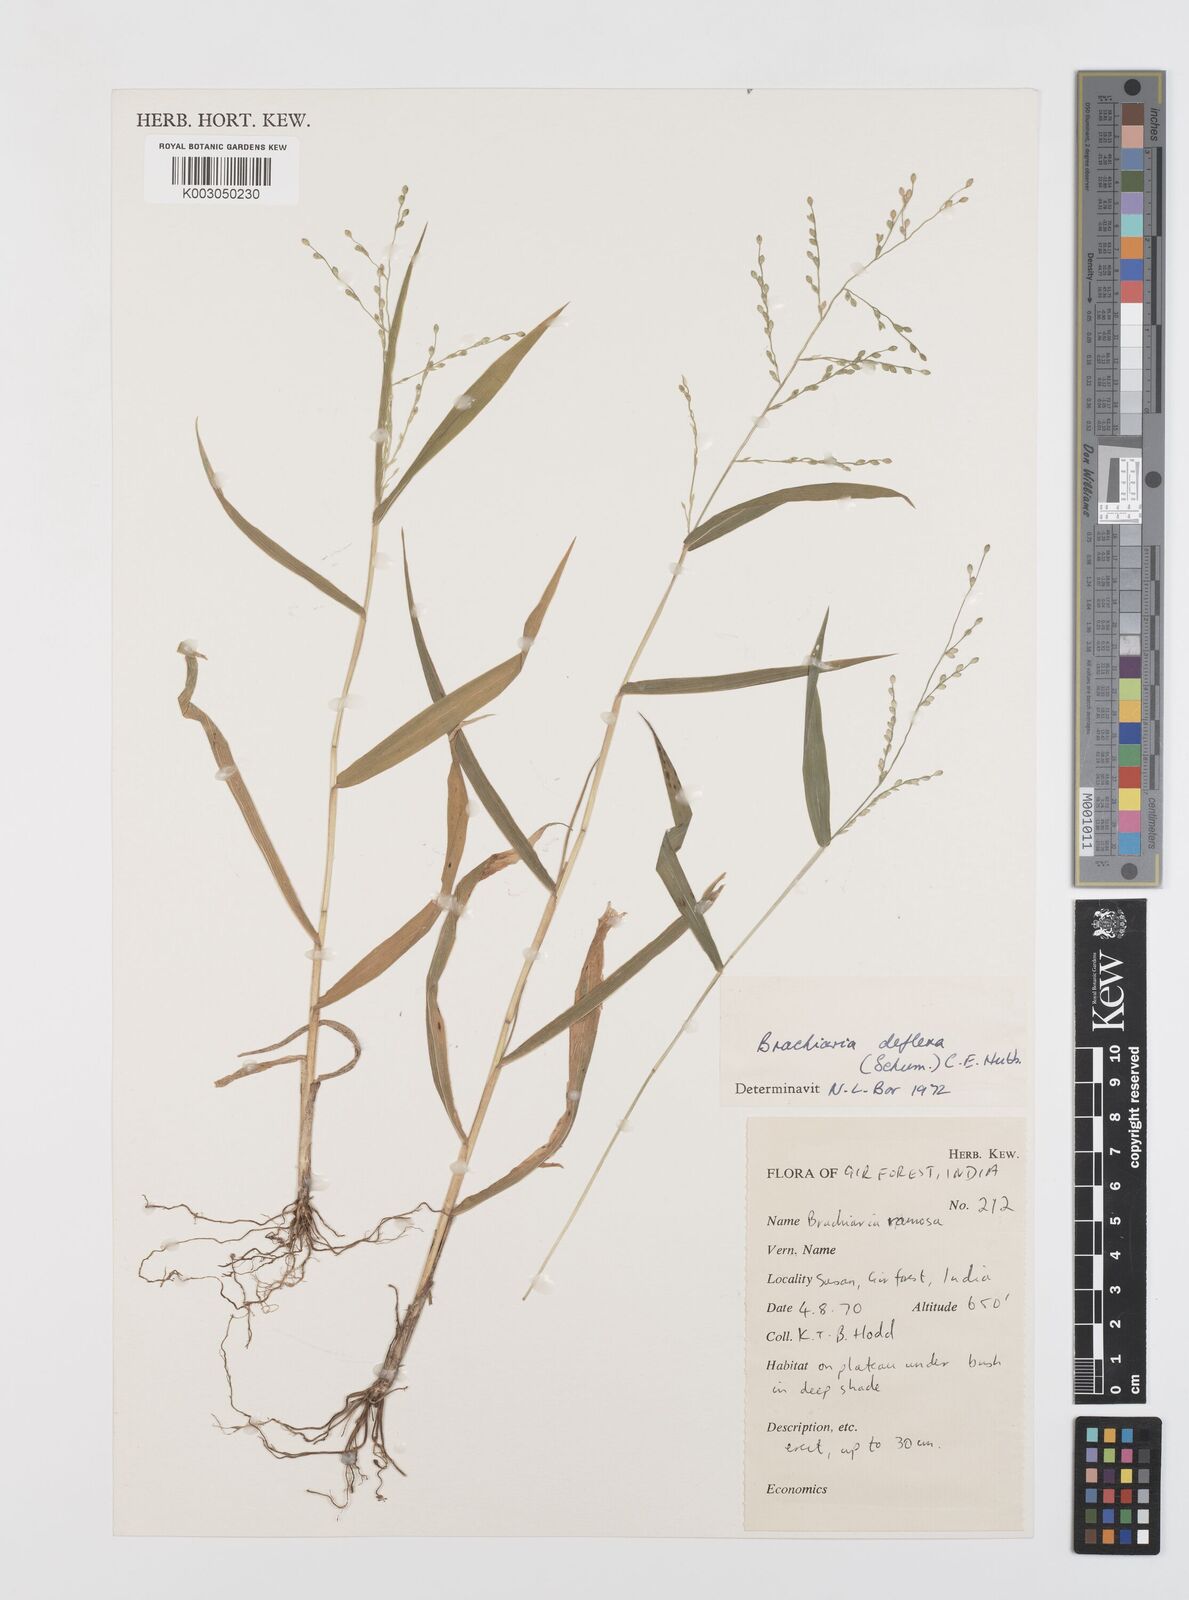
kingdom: Plantae
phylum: Tracheophyta
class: Liliopsida
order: Poales
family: Poaceae
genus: Urochloa
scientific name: Urochloa ramosa
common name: Browntop millet
